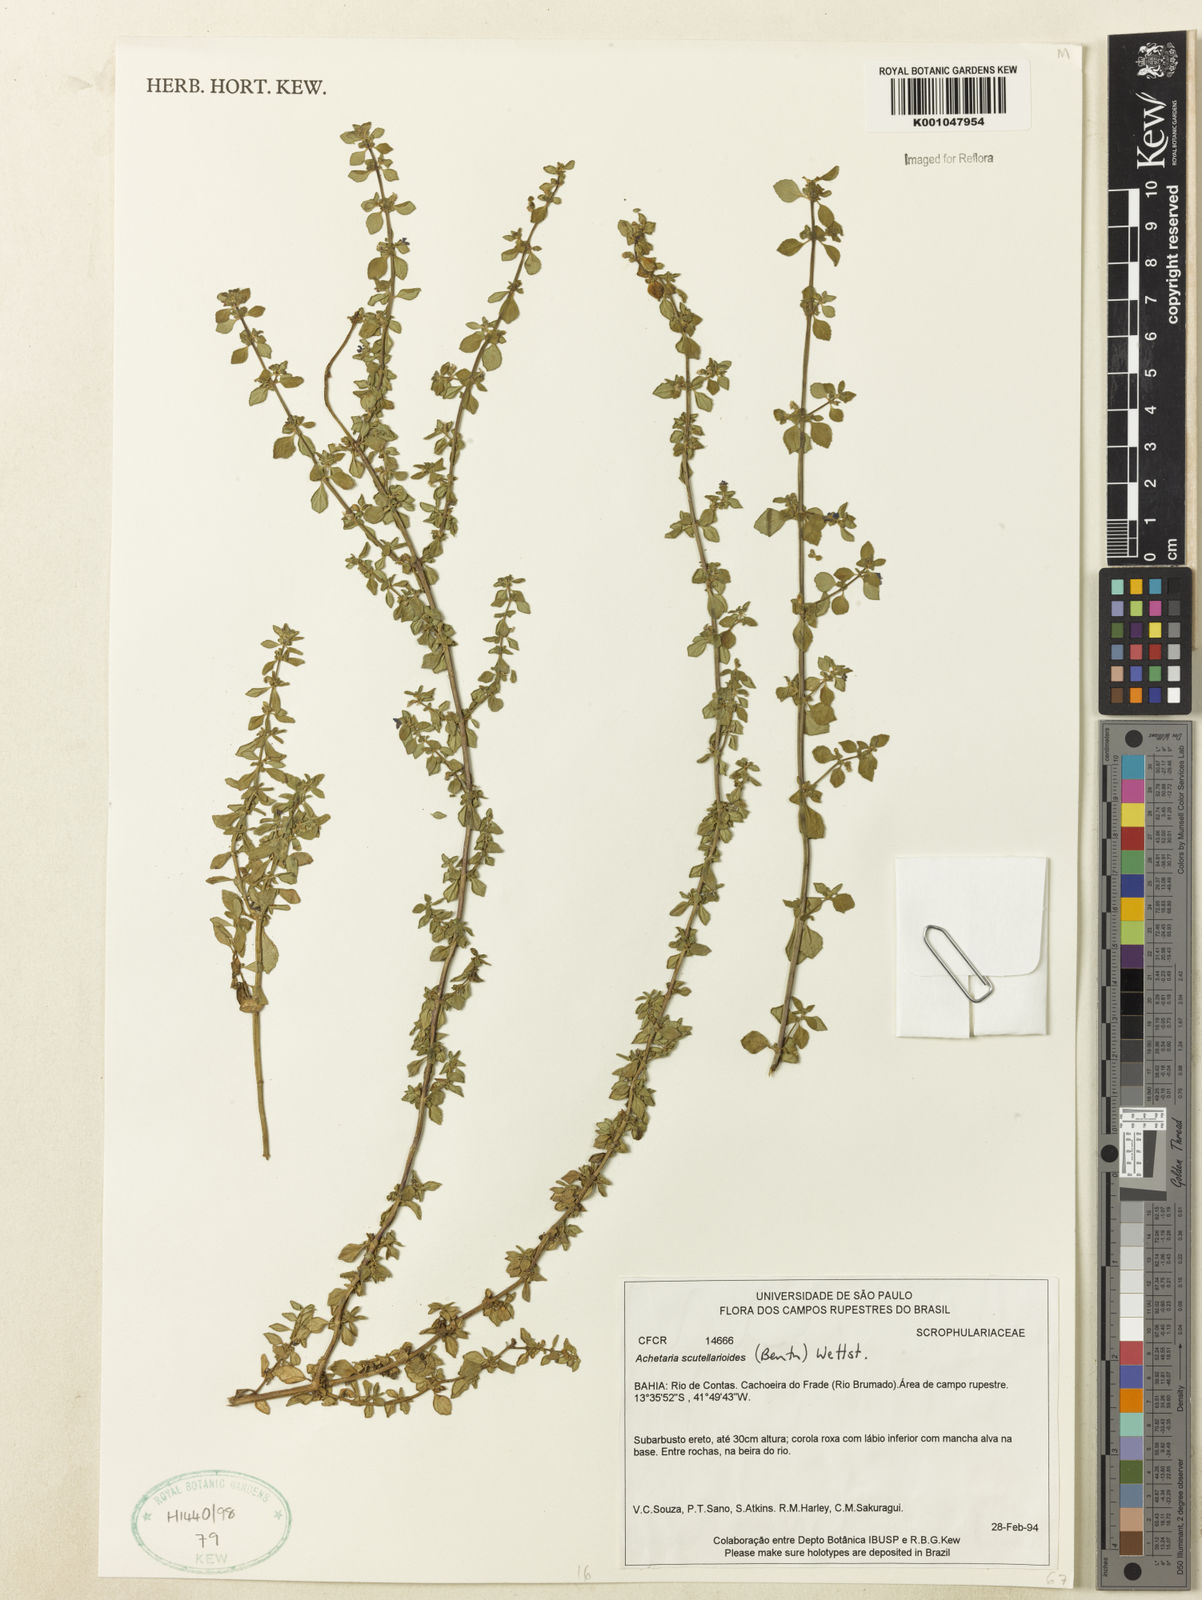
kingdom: Plantae
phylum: Tracheophyta
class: Magnoliopsida
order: Lamiales
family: Plantaginaceae
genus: Matourea
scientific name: Matourea scutellarioides
